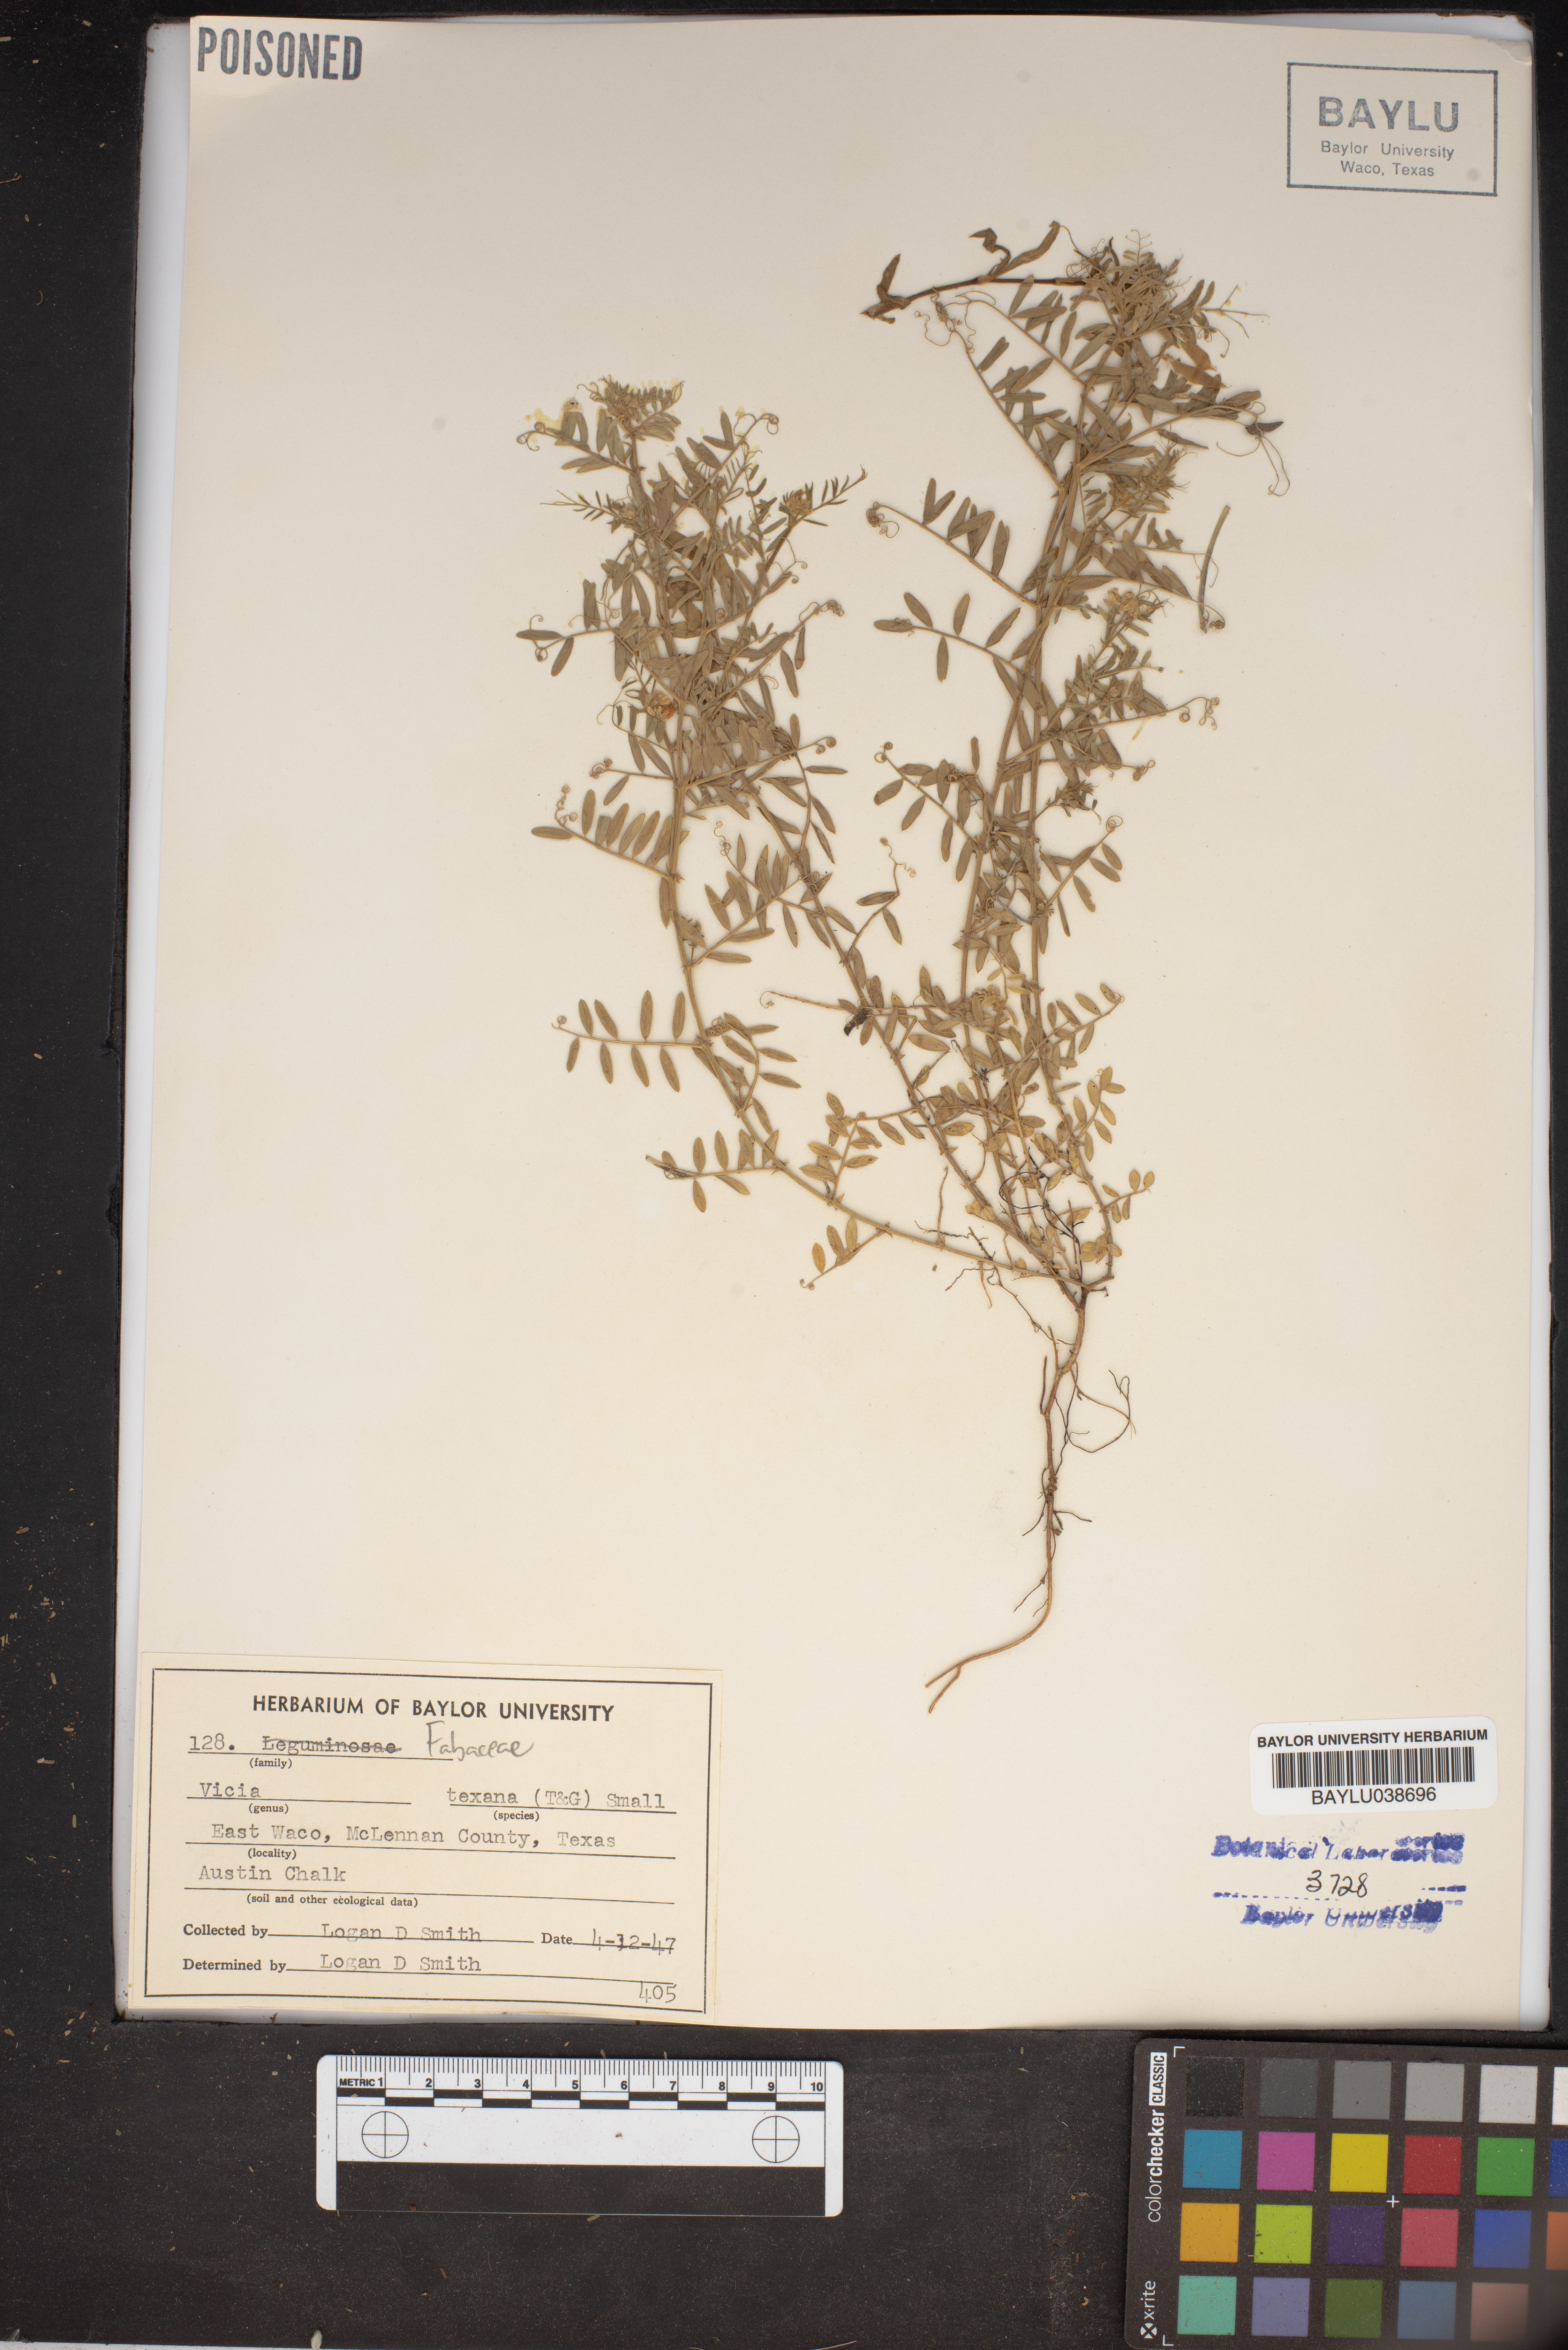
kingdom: Plantae
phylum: Tracheophyta
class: Magnoliopsida
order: Fabales
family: Fabaceae
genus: Vicia
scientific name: Vicia ludoviciana
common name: Louisiana vetch
